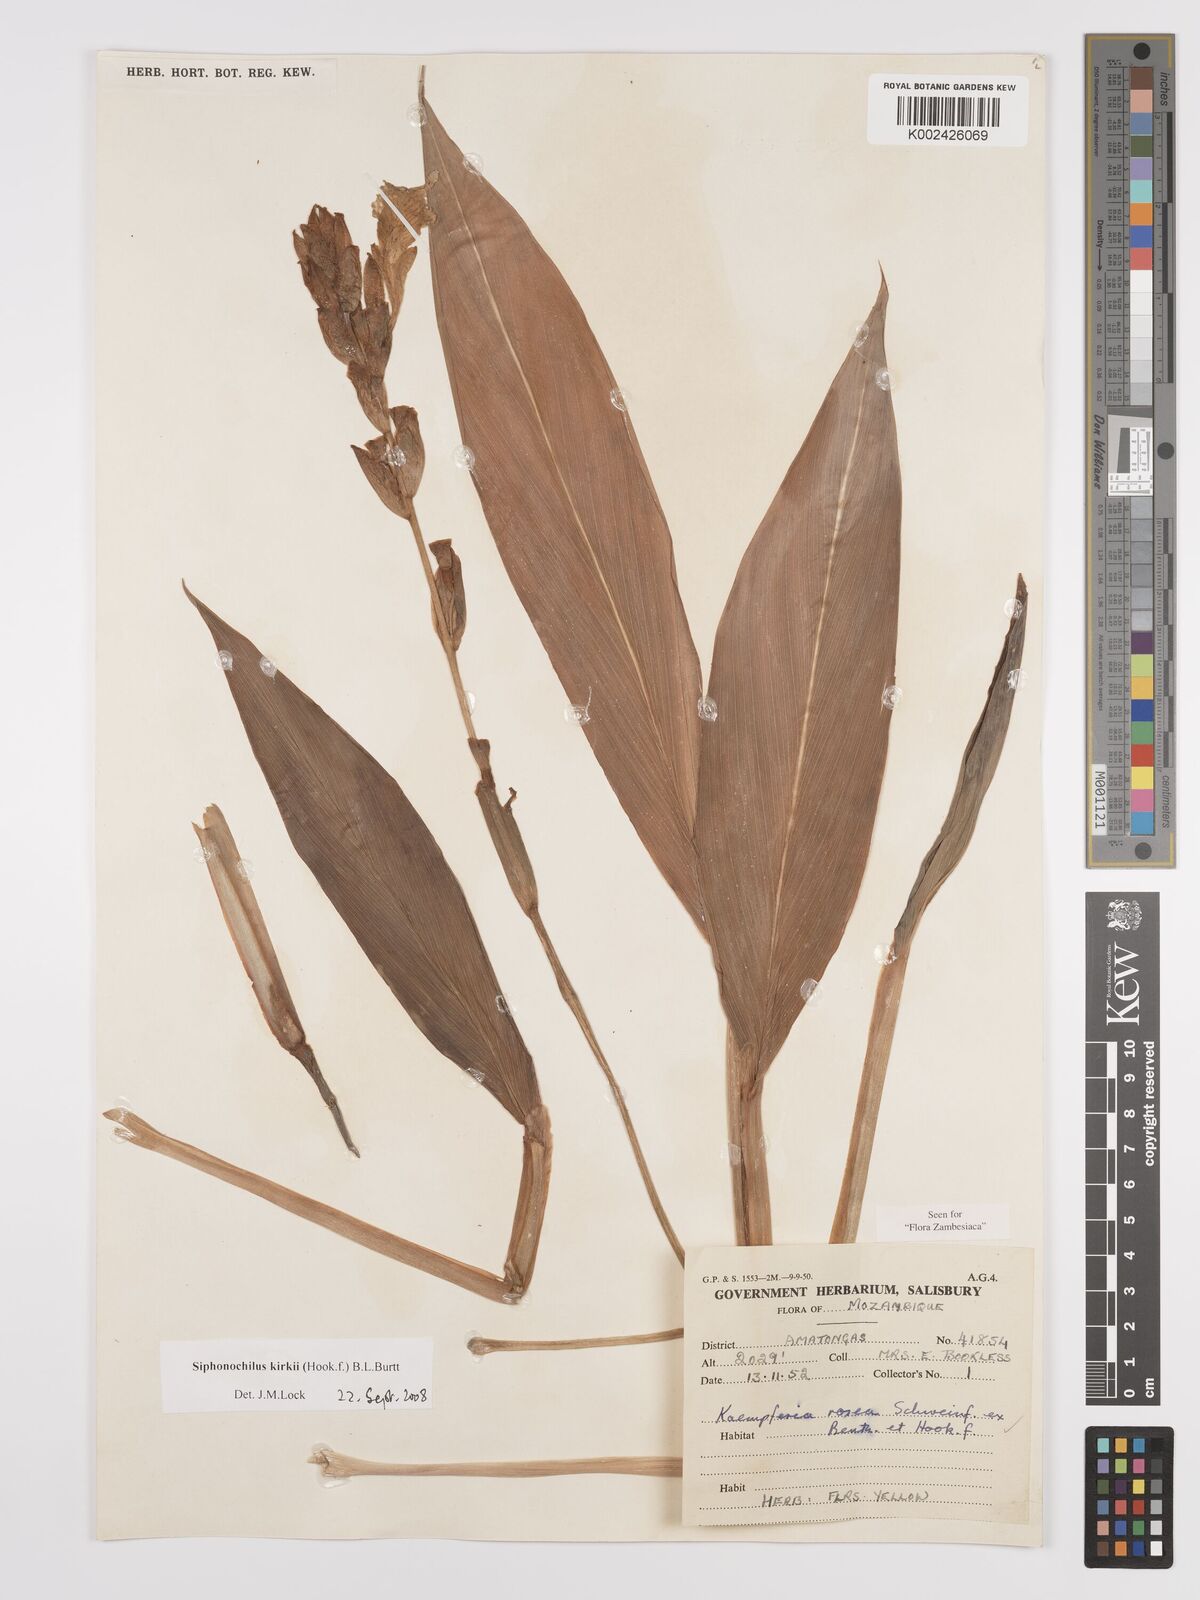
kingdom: Plantae
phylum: Tracheophyta
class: Liliopsida
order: Zingiberales
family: Zingiberaceae
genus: Siphonochilus
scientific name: Siphonochilus kirkii
